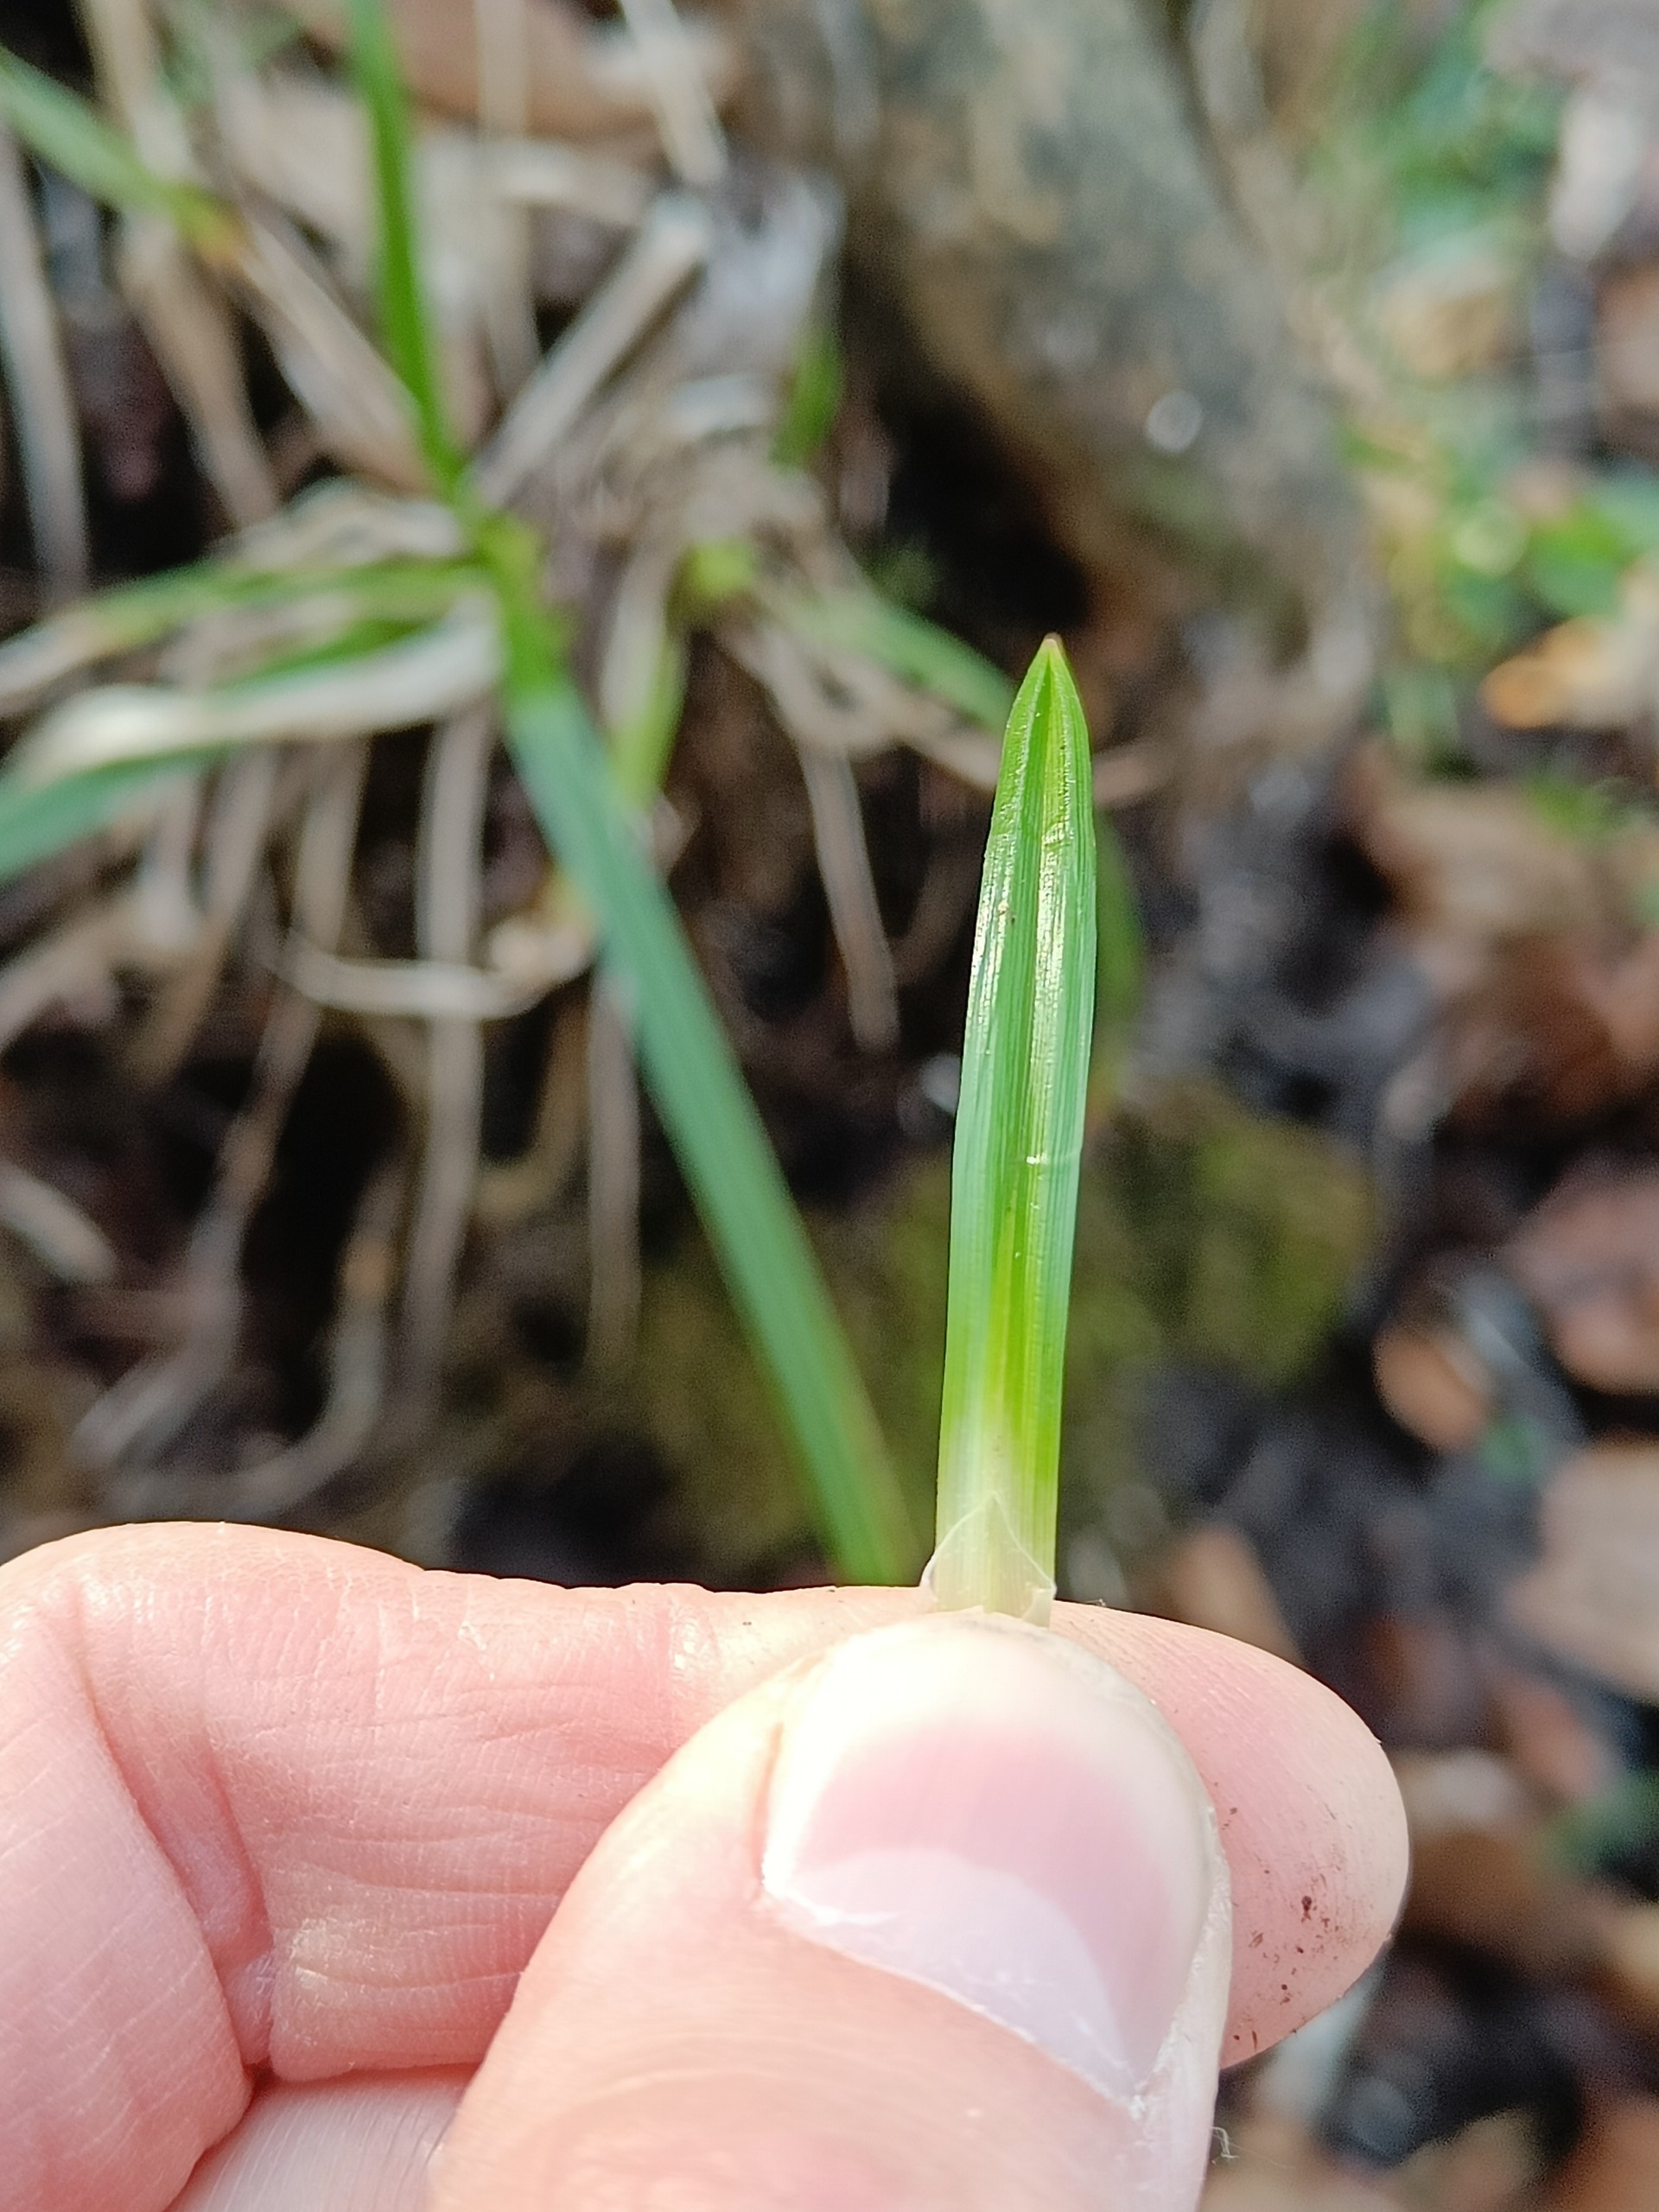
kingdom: Plantae
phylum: Tracheophyta
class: Liliopsida
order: Poales
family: Cyperaceae
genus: Carex
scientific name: Carex sylvatica
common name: Skov-star
